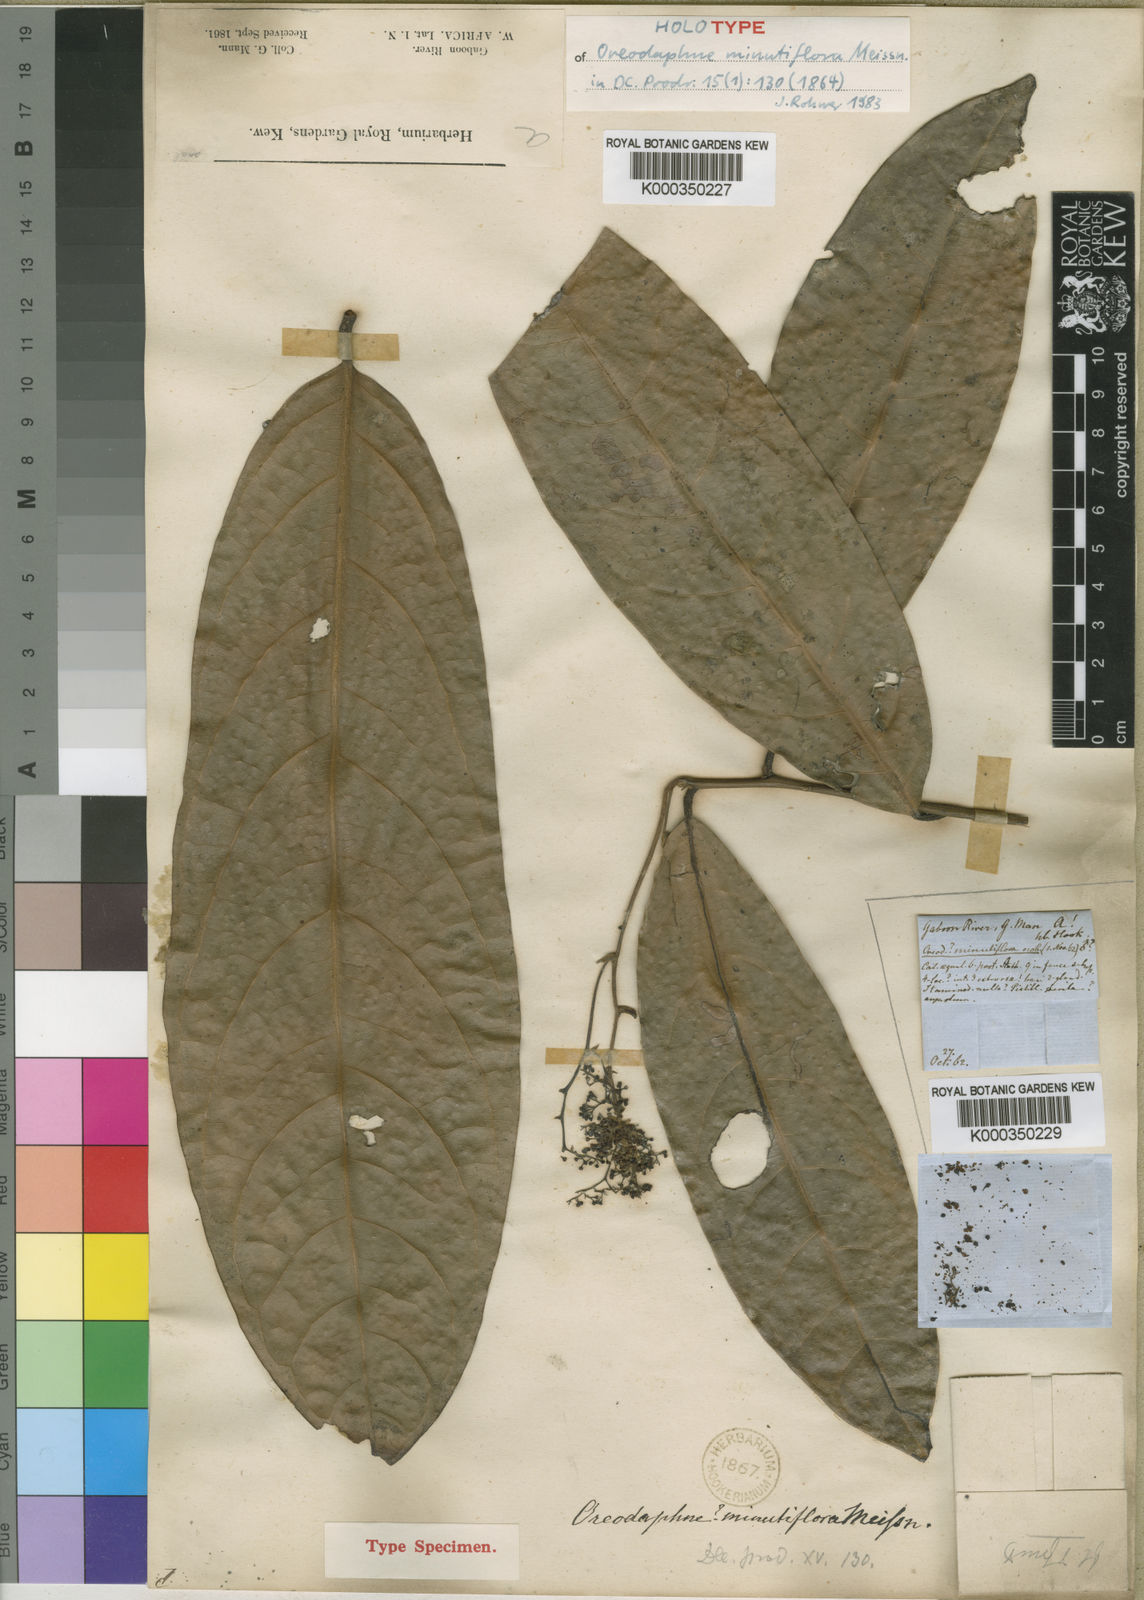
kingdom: Plantae
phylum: Tracheophyta
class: Magnoliopsida
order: Laurales
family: Lauraceae
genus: Beilschmiedia
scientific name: Beilschmiedia
